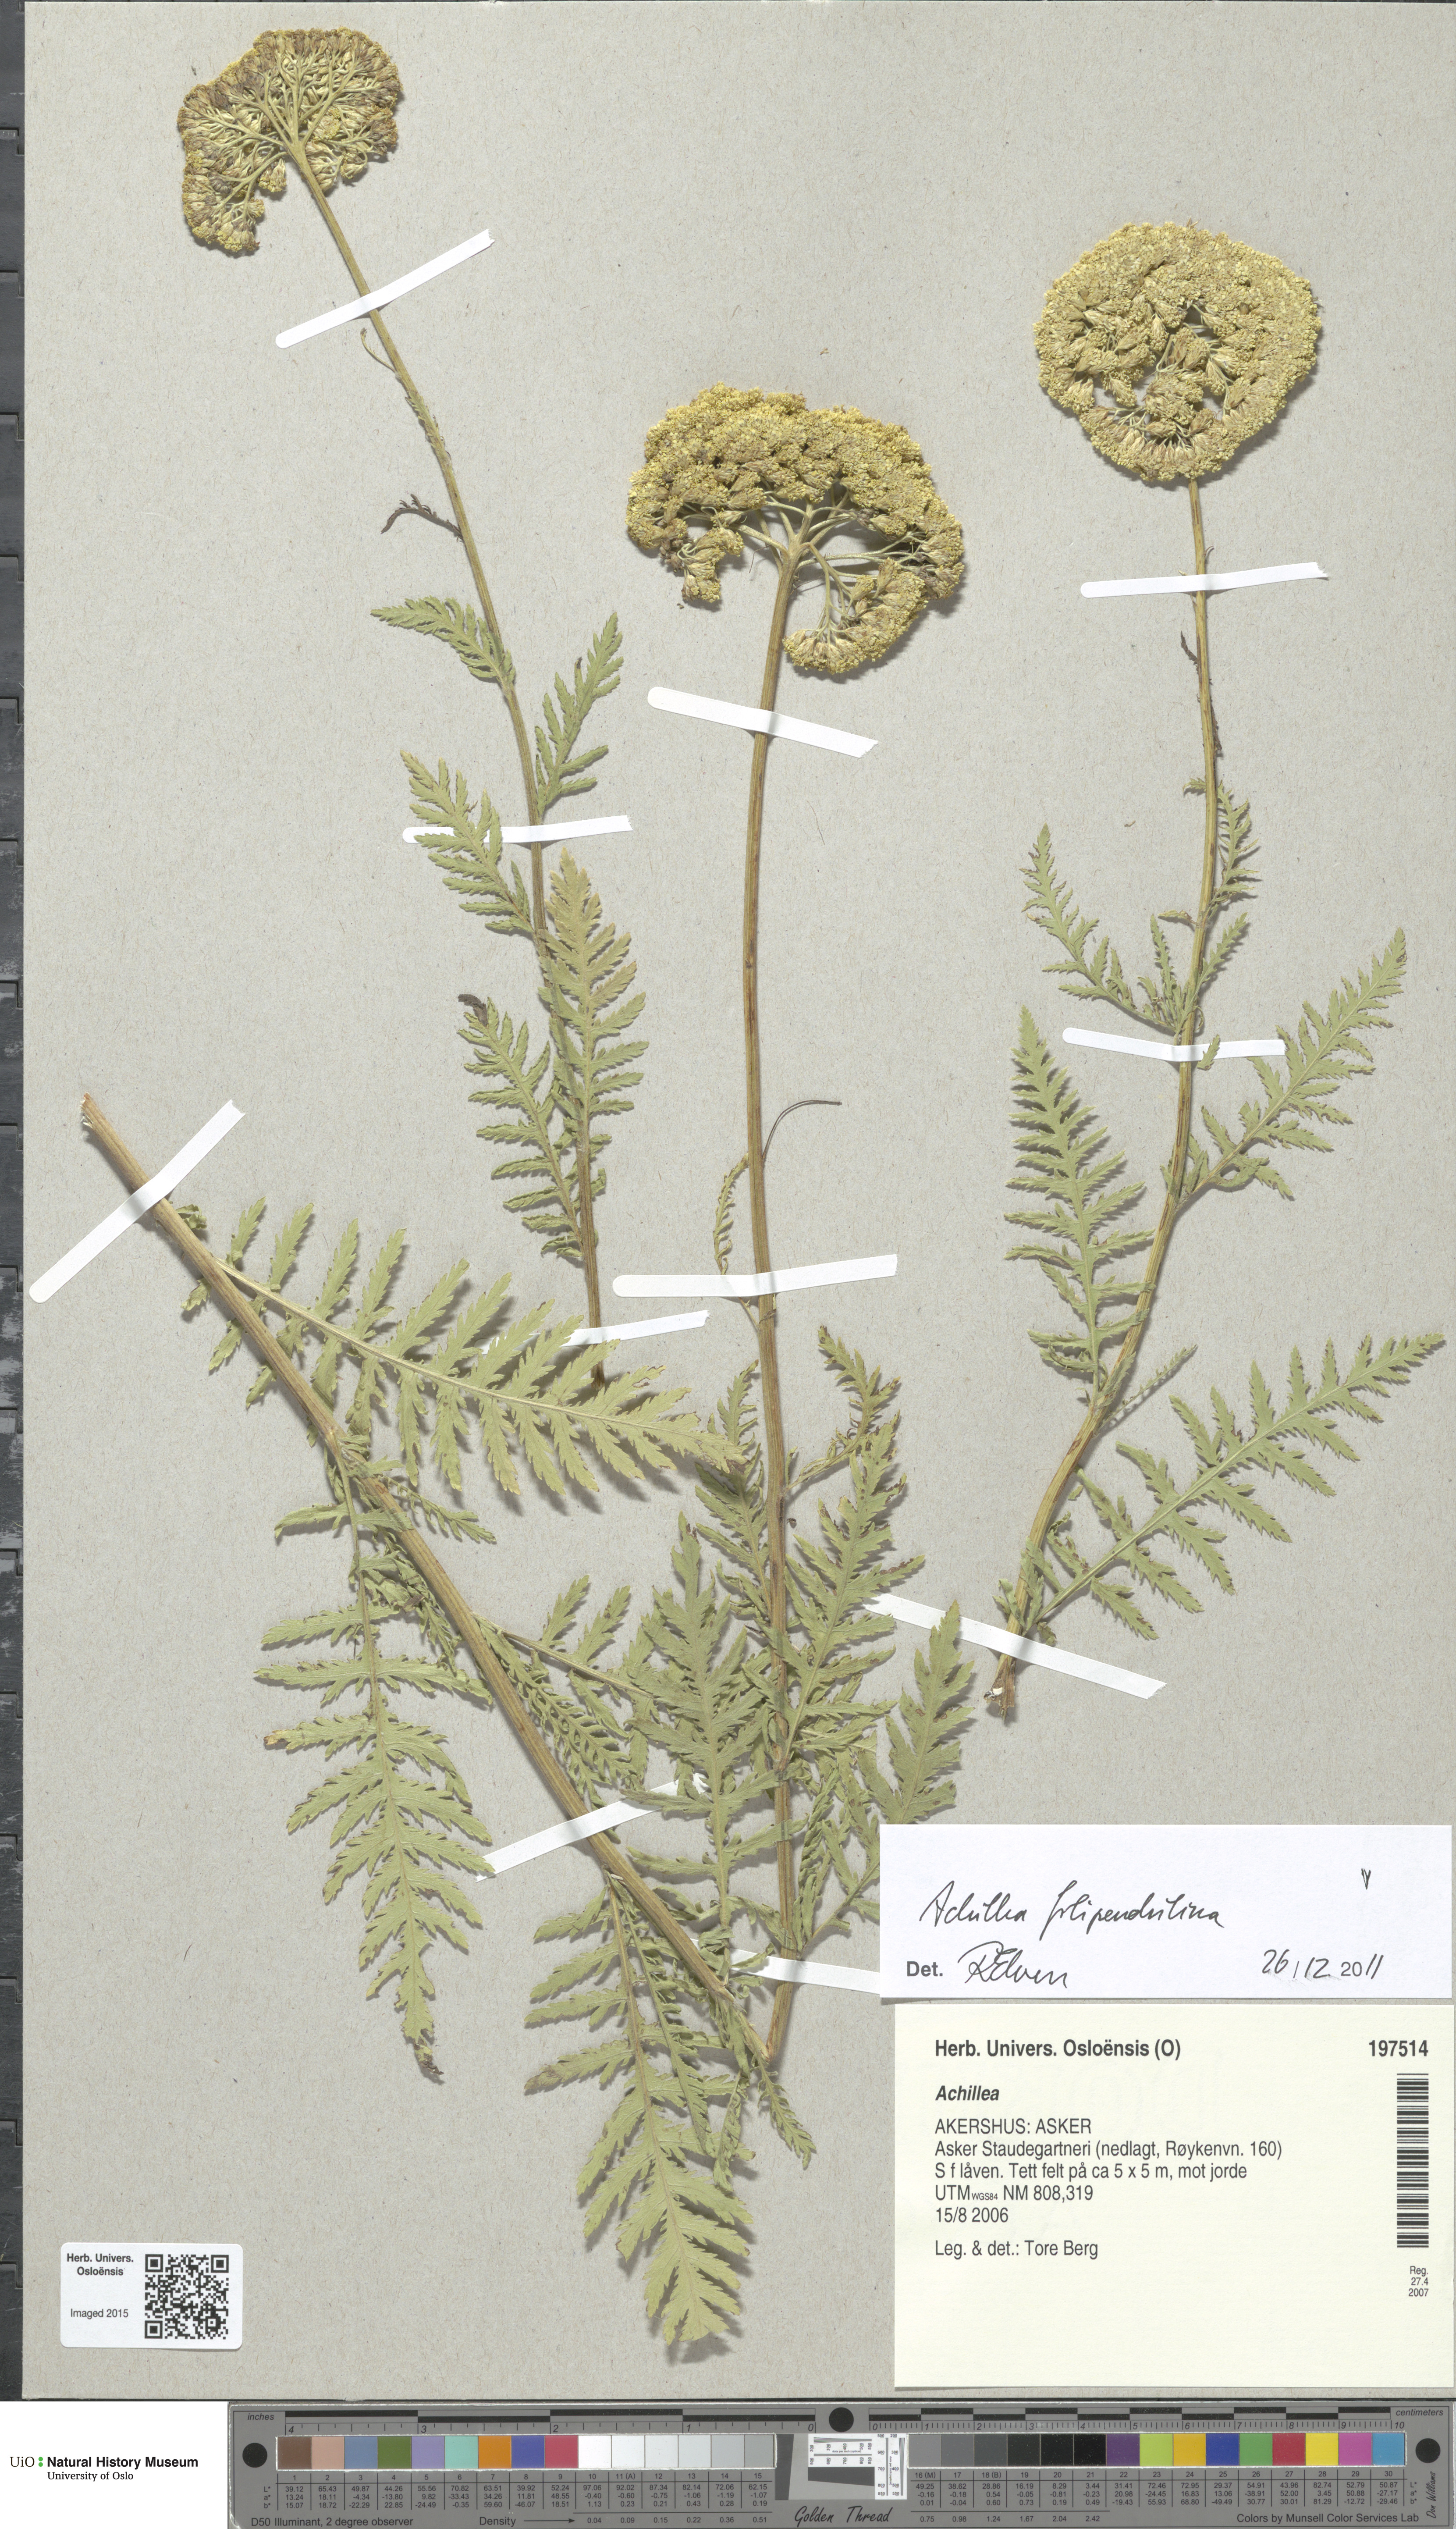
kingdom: Plantae
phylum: Tracheophyta
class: Magnoliopsida
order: Asterales
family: Asteraceae
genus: Achillea
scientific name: Achillea filipendulina
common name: Fernleaf yarrow
